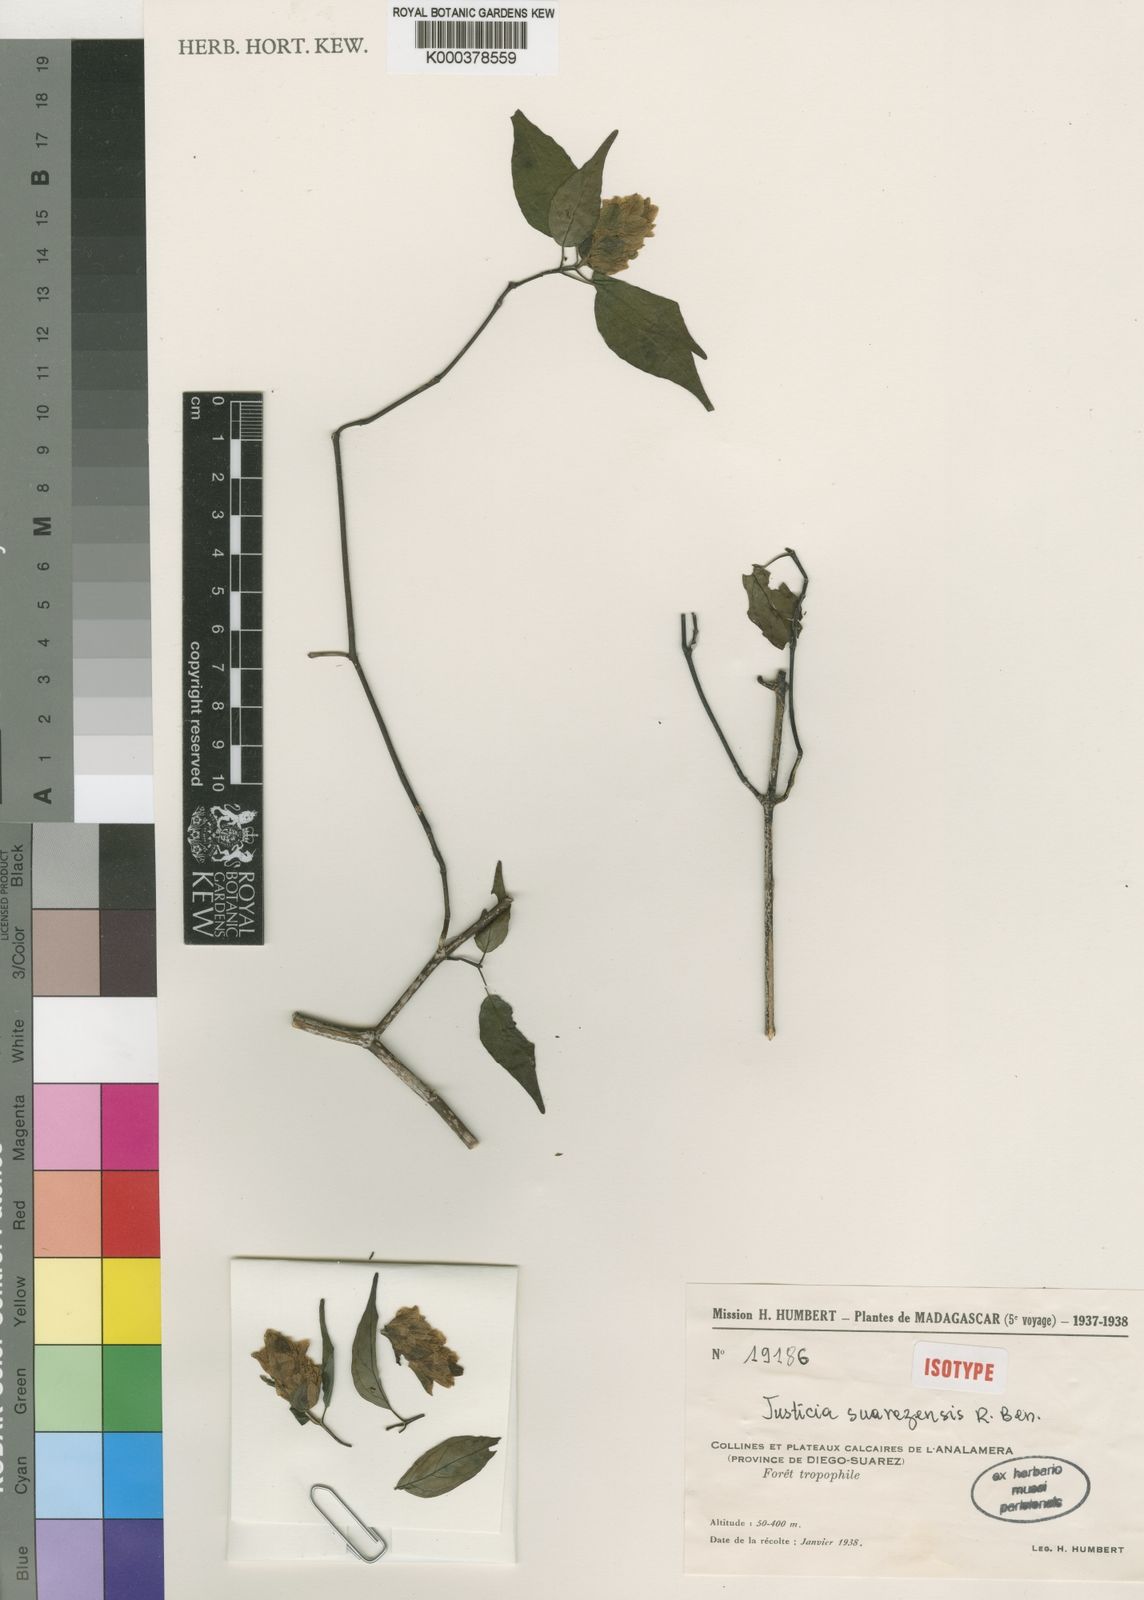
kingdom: Plantae
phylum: Tracheophyta
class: Magnoliopsida
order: Lamiales
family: Acanthaceae
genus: Justicia
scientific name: Justicia suarezensis
